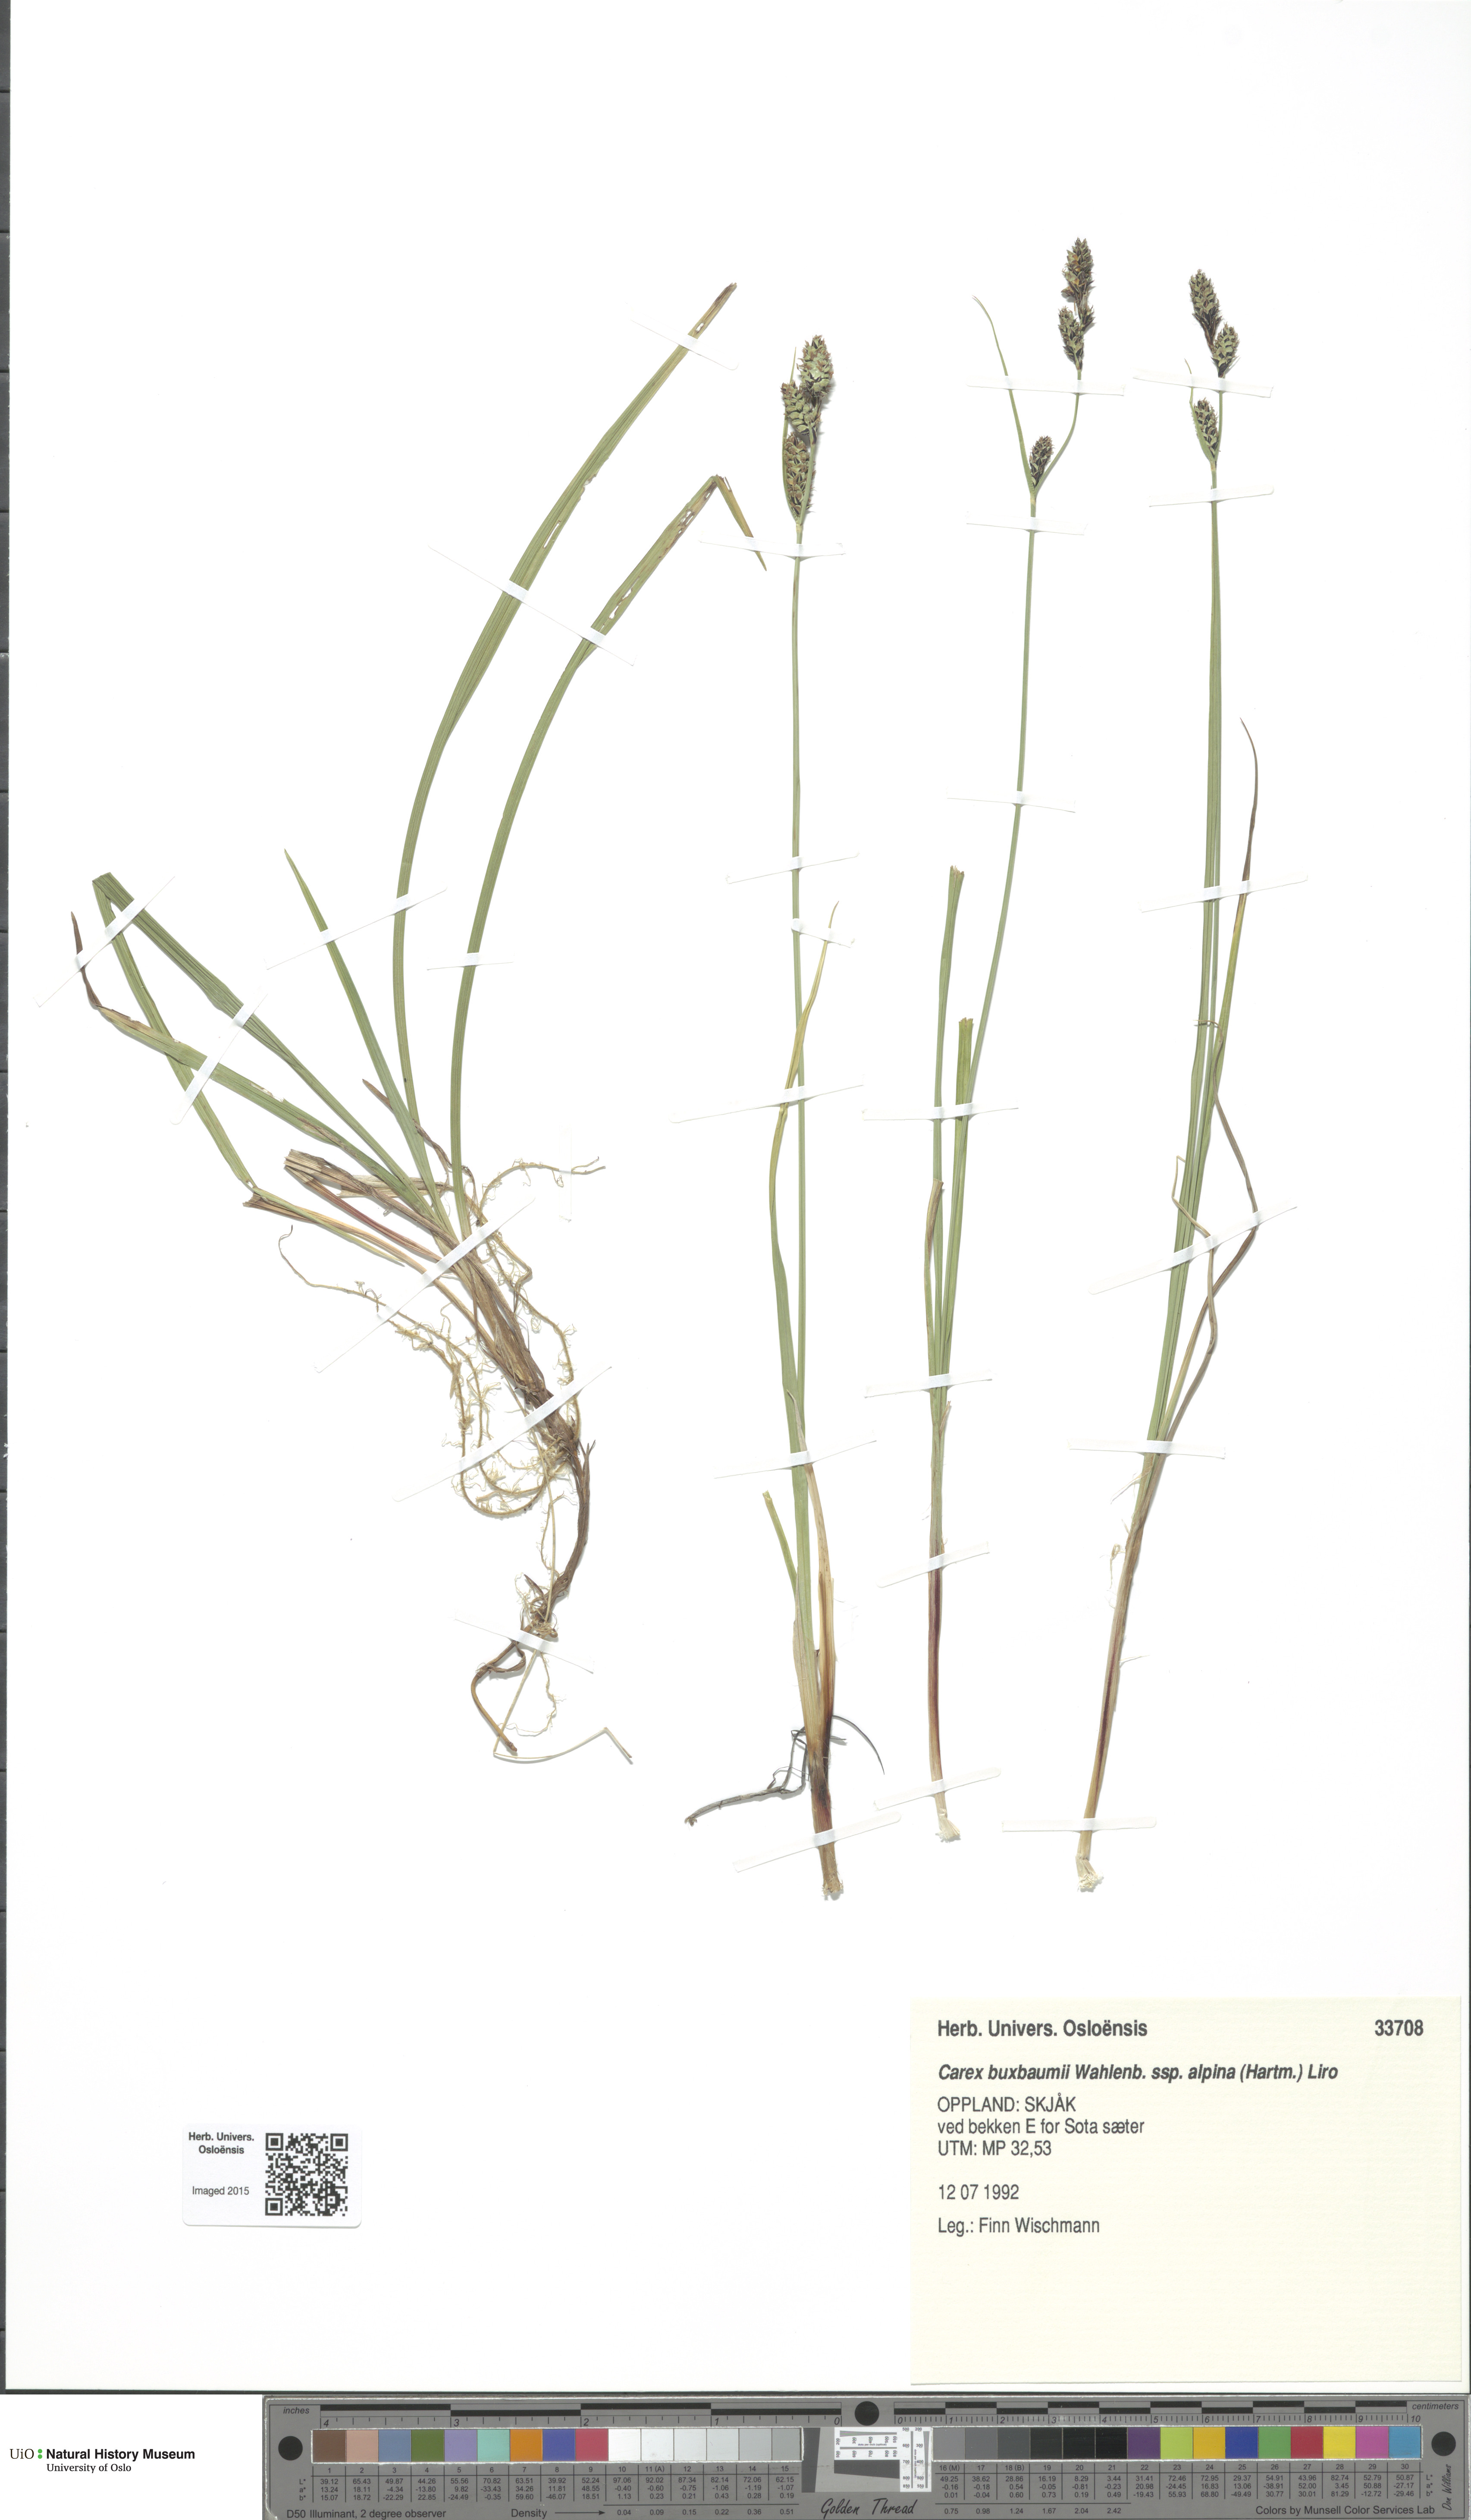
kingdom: Plantae
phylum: Tracheophyta
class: Liliopsida
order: Poales
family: Cyperaceae
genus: Carex
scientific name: Carex adelostoma
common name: Circumpolar sedge
